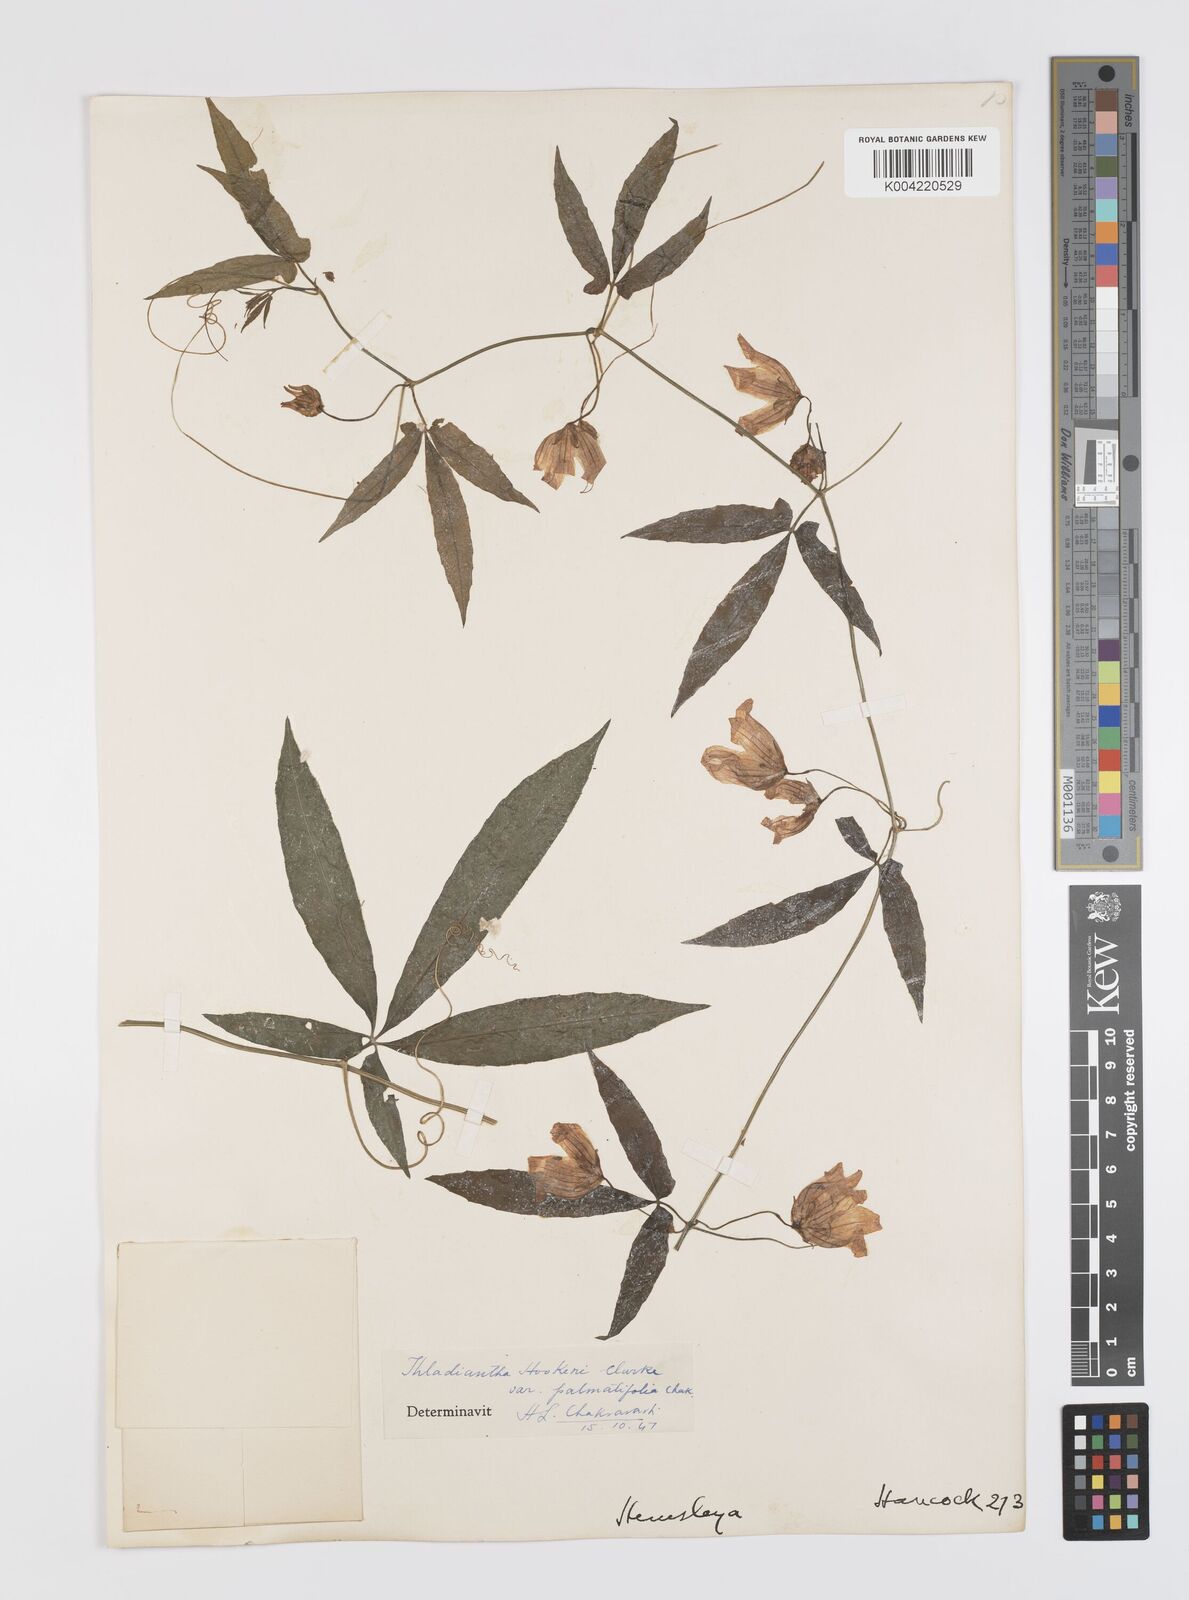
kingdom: Plantae
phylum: Tracheophyta
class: Magnoliopsida
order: Cucurbitales
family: Cucurbitaceae
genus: Thladiantha
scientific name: Thladiantha hookeri
